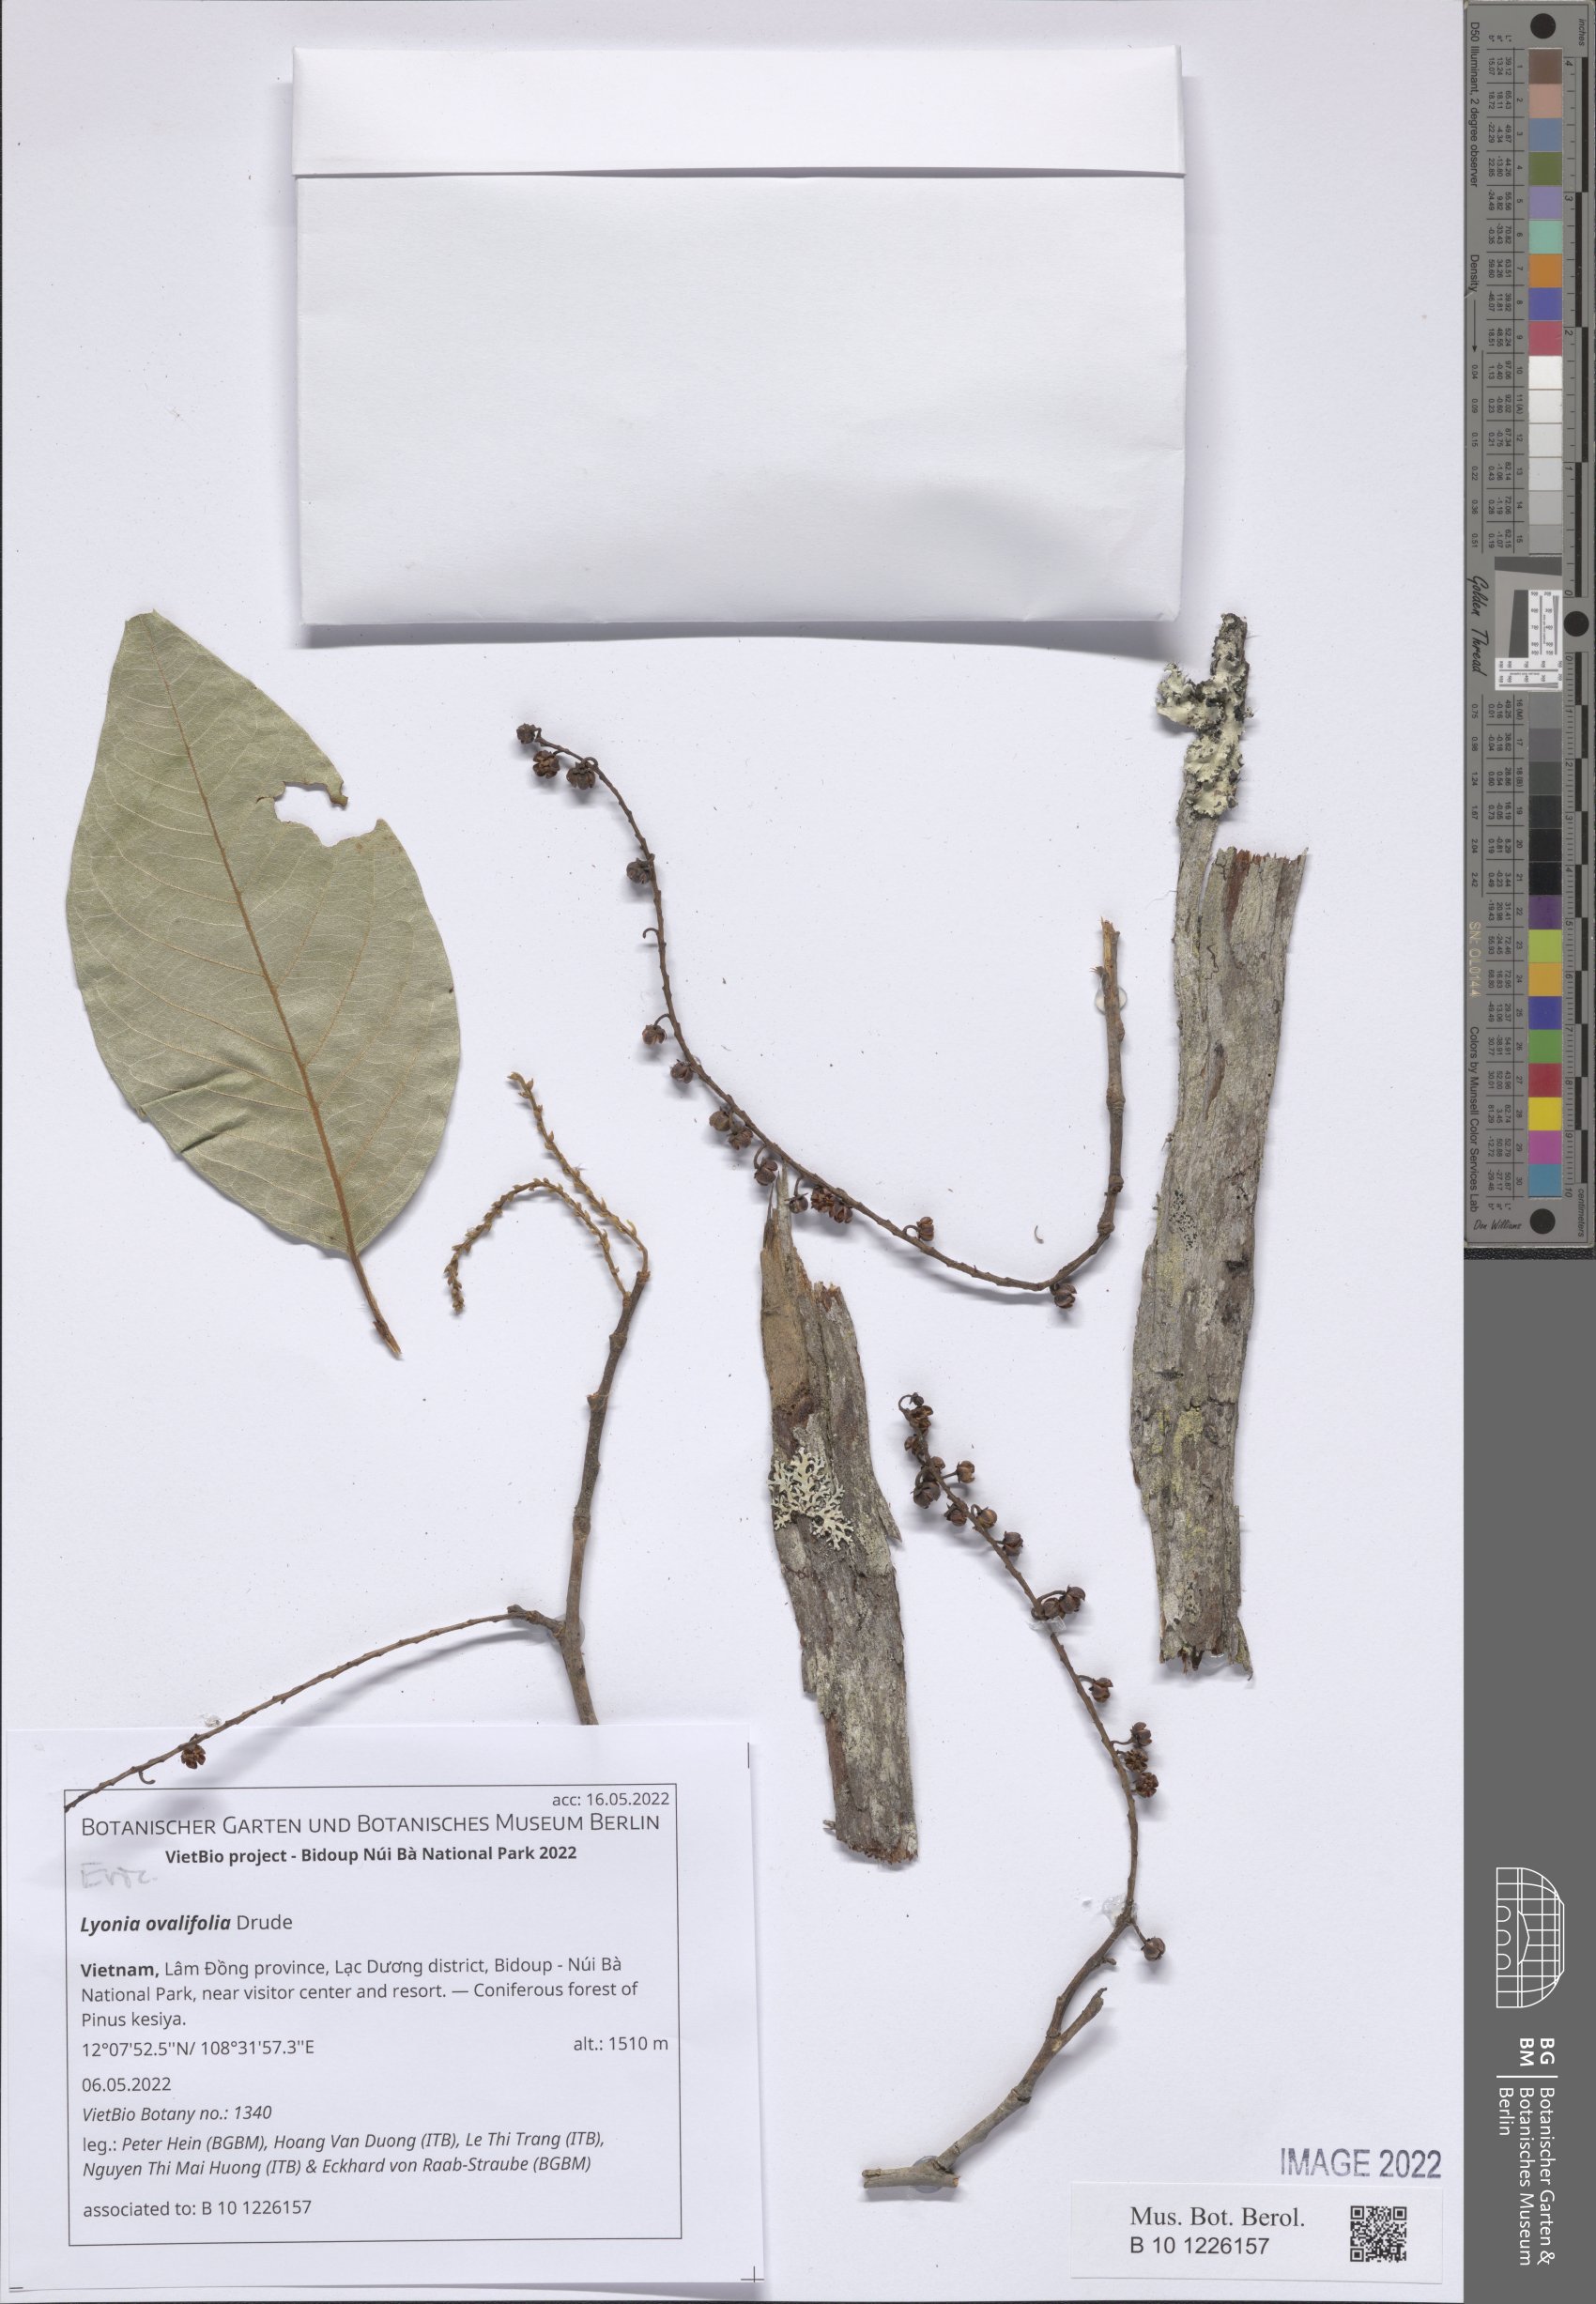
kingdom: Plantae
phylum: Tracheophyta
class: Magnoliopsida
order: Ericales
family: Ericaceae
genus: Lyonia
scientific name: Lyonia ovalifolia
